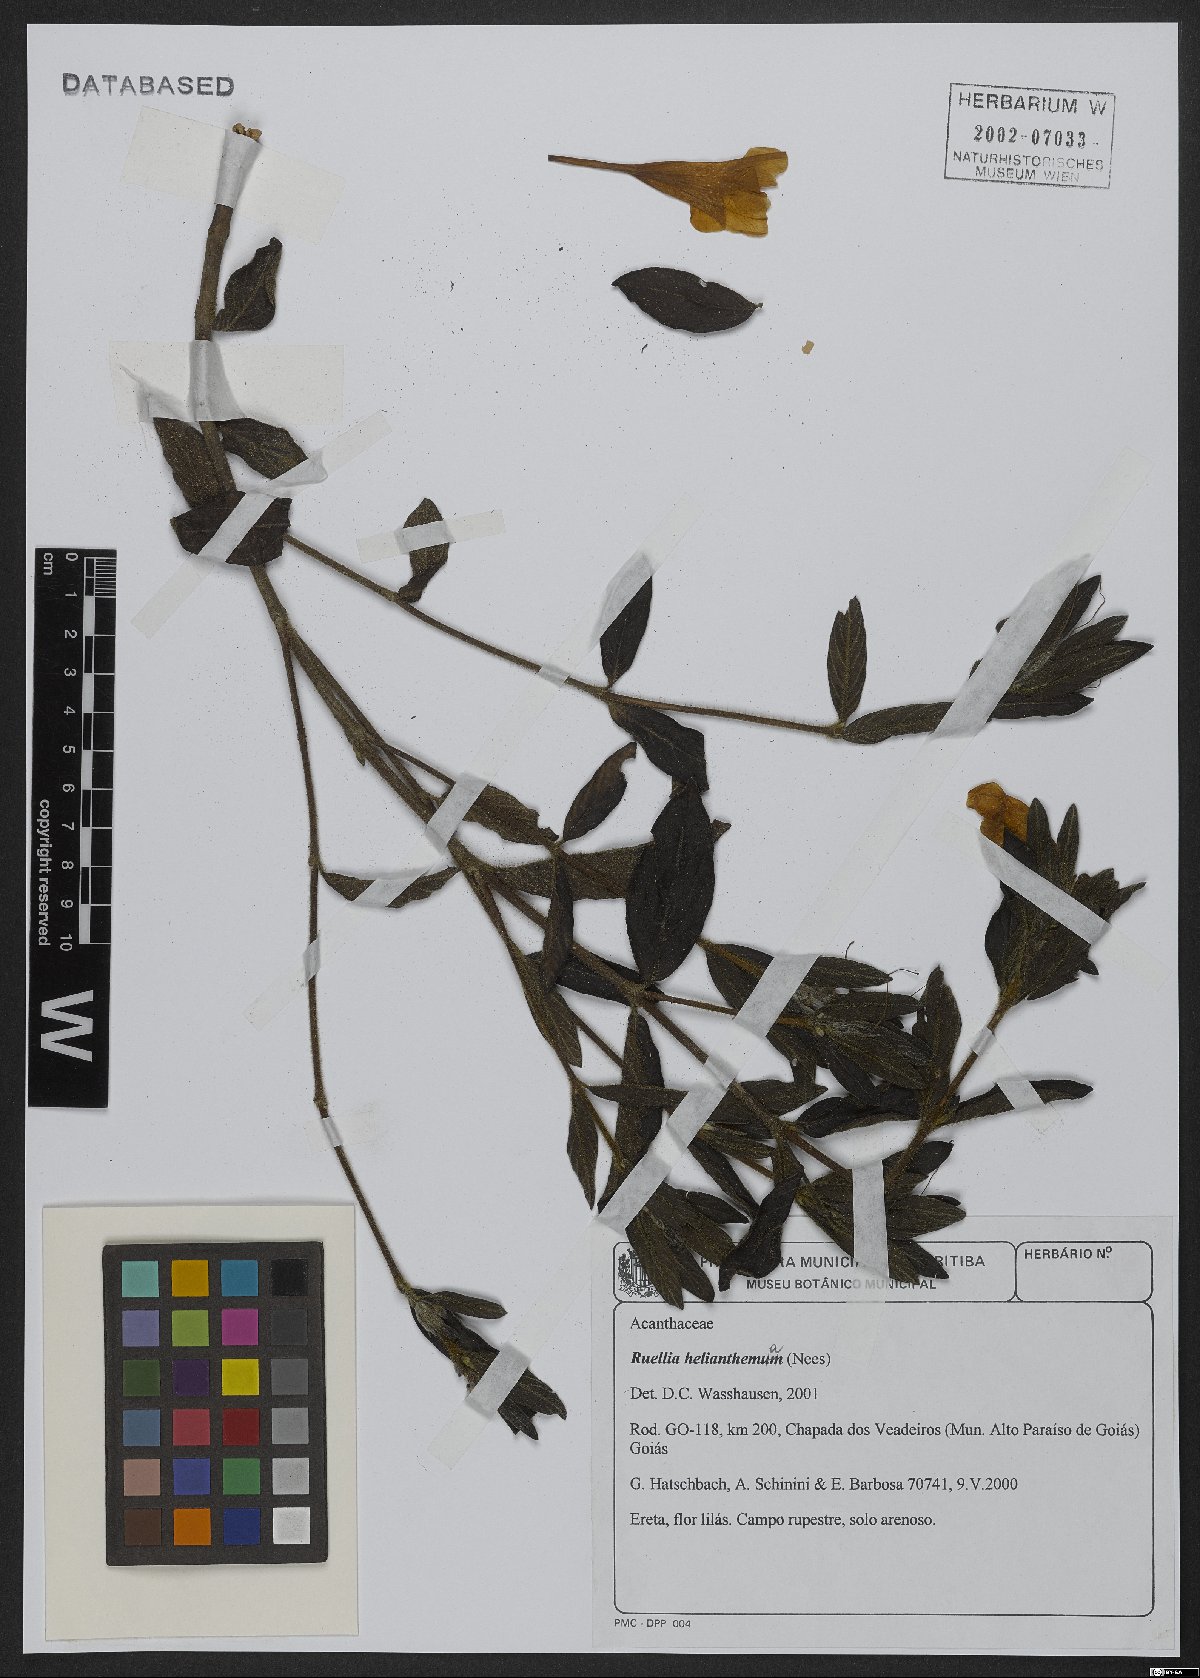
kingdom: Plantae
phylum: Tracheophyta
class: Magnoliopsida
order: Lamiales
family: Acanthaceae
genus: Ruellia
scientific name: Ruellia helianthema
